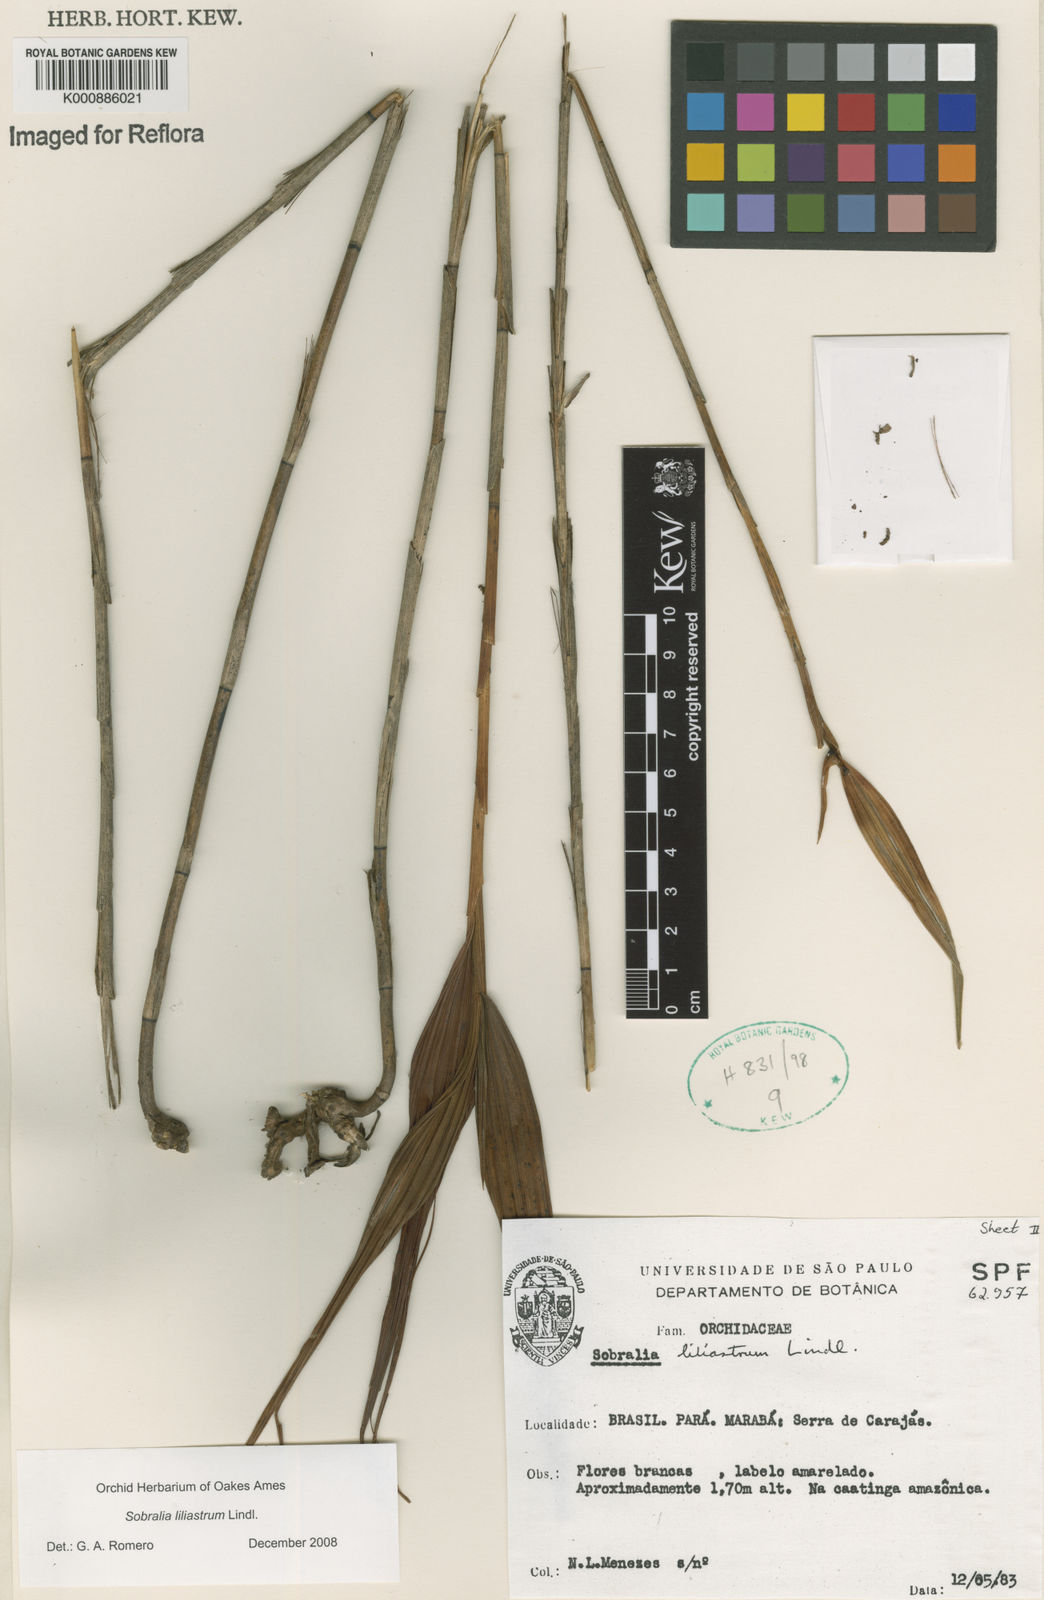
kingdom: Plantae
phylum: Tracheophyta
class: Liliopsida
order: Asparagales
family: Orchidaceae
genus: Sobralia
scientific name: Sobralia liliastrum
